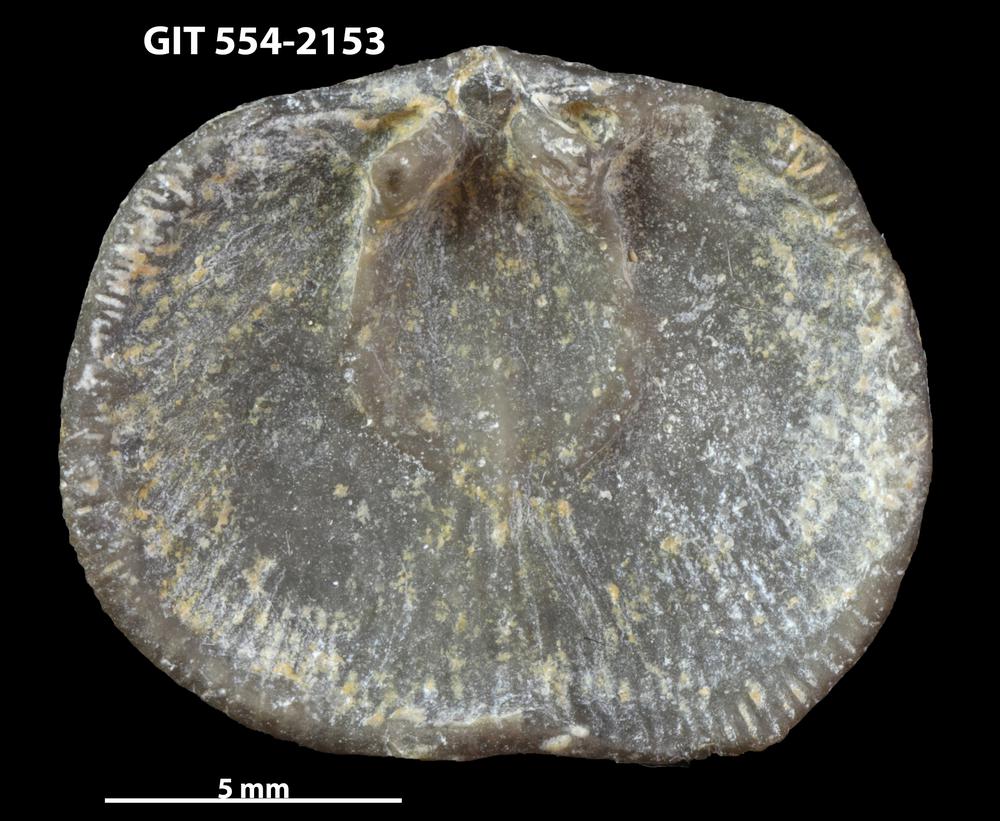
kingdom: Animalia
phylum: Brachiopoda
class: Rhynchonellata
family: Dalmanellidae
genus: Levenea
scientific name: Levenea Orthis canaliculata
